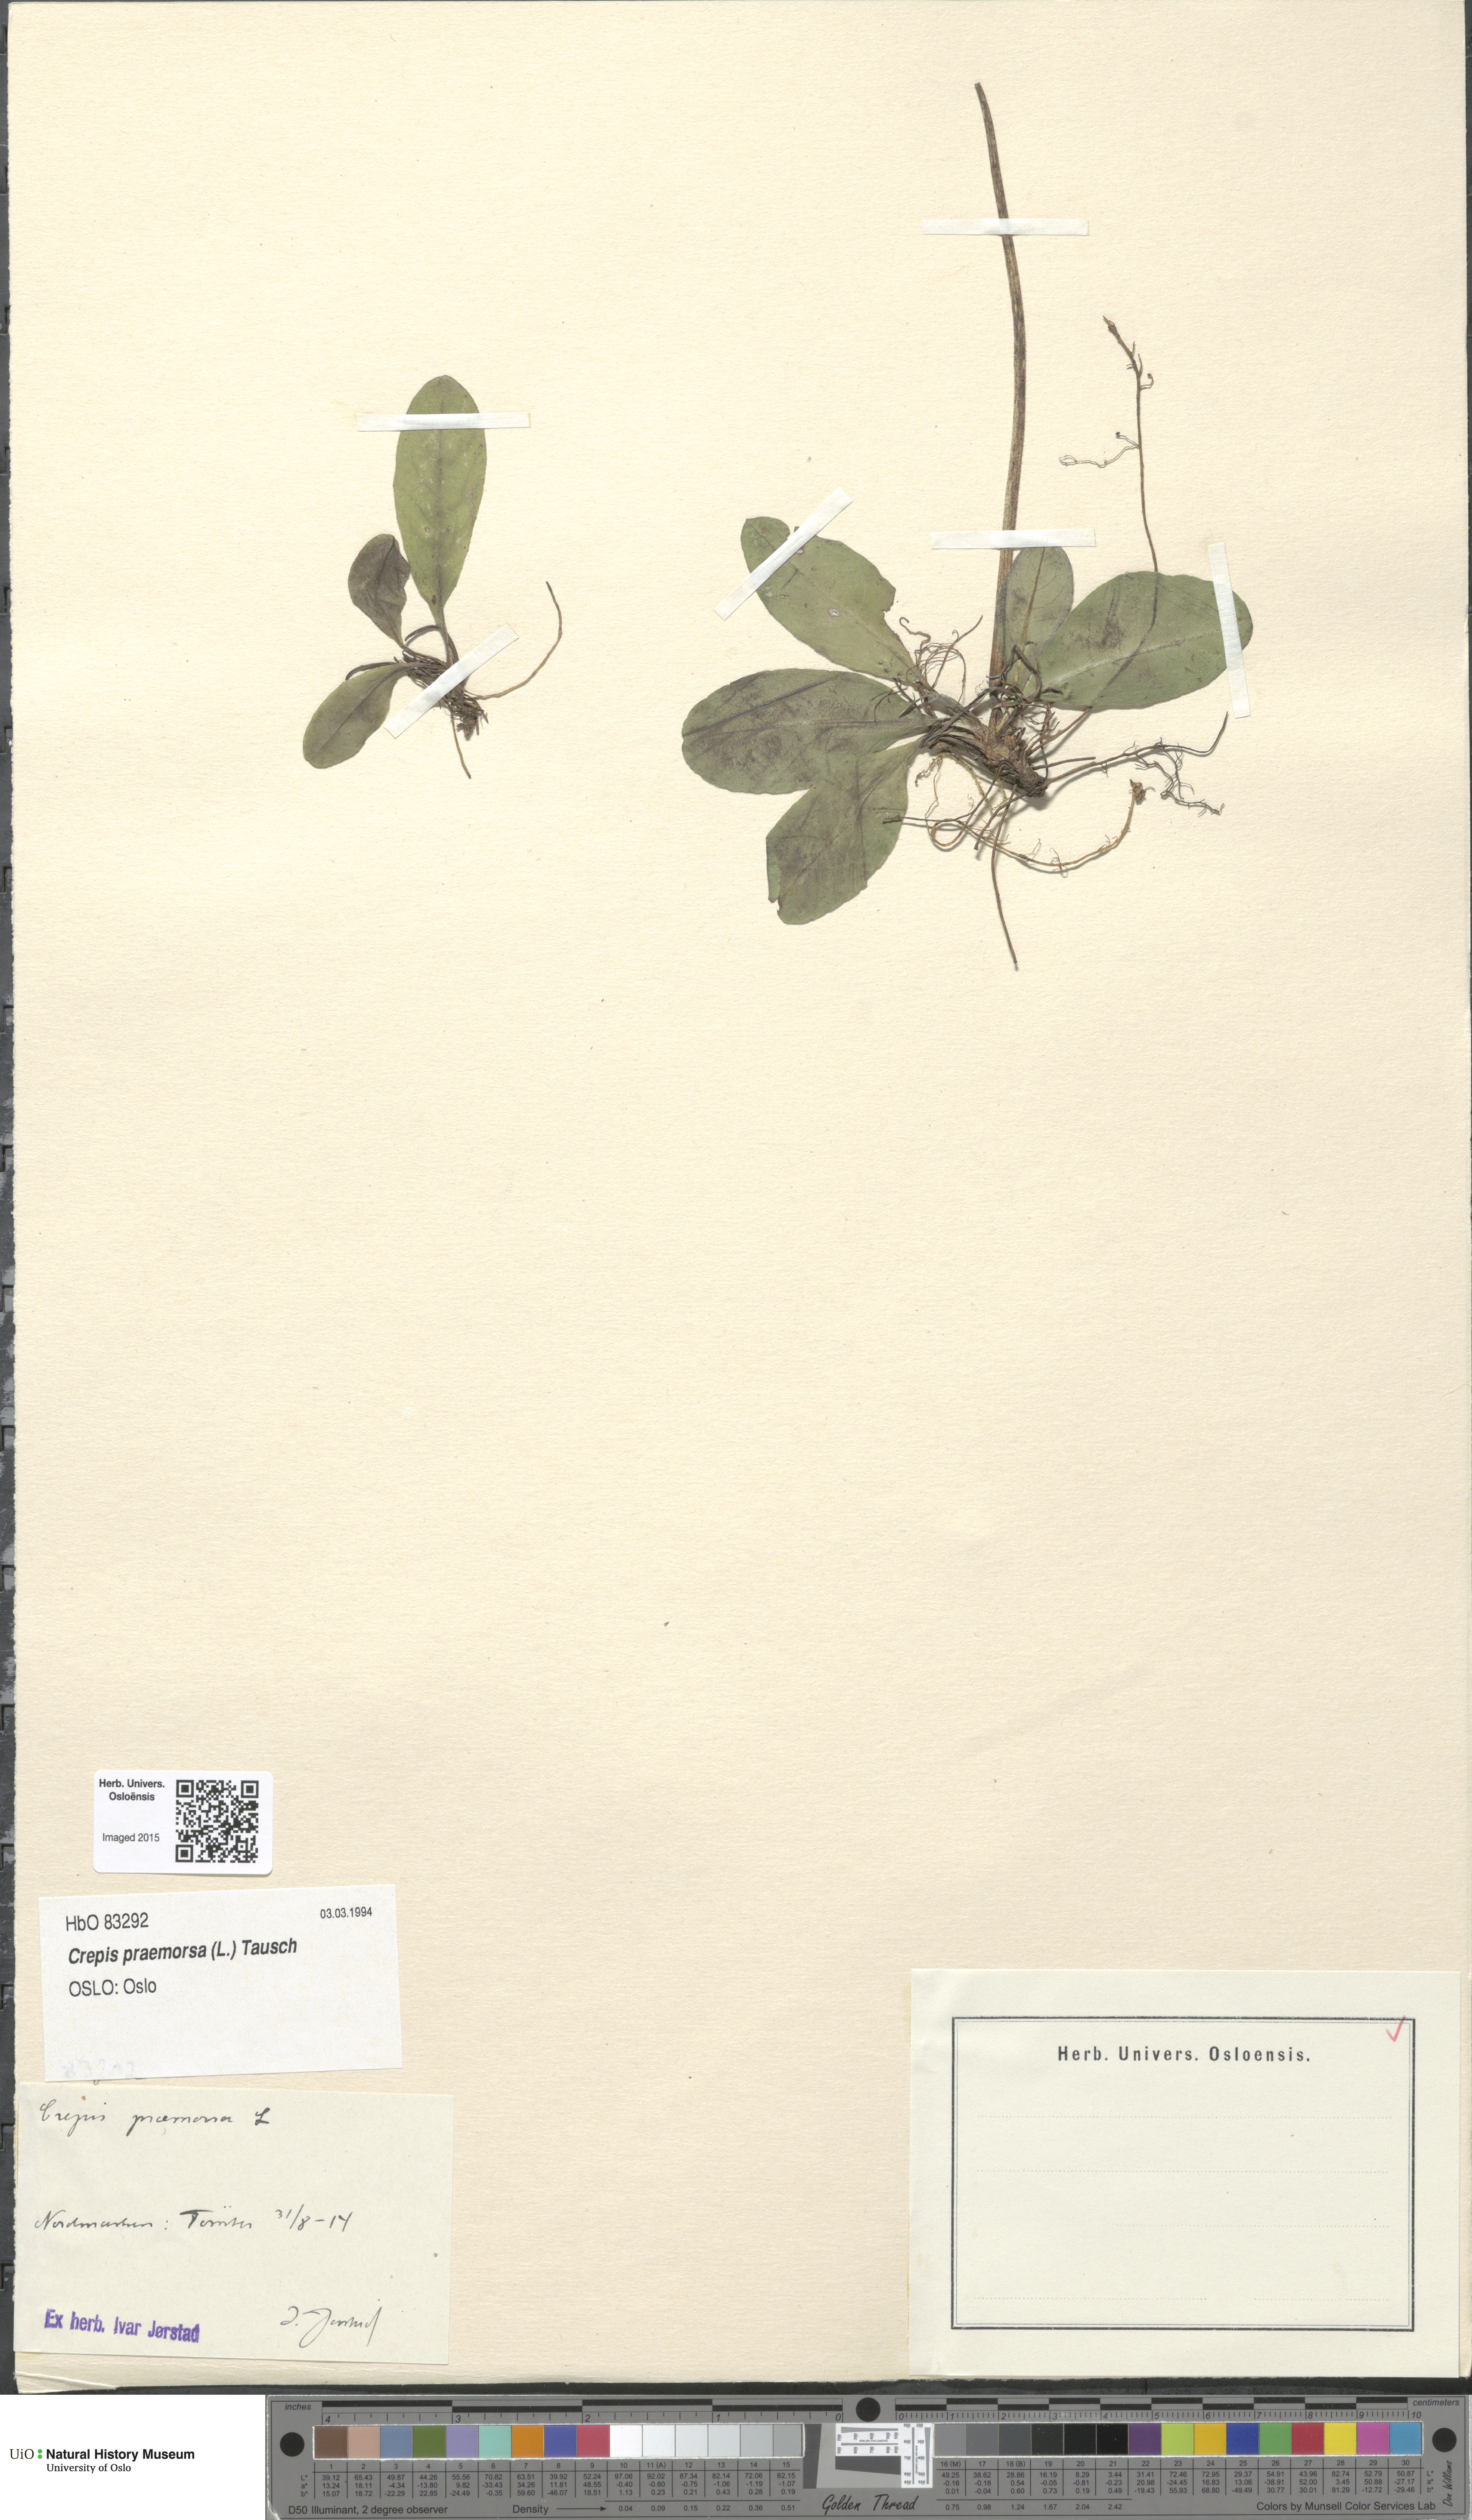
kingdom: Plantae
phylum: Tracheophyta
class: Magnoliopsida
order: Asterales
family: Asteraceae
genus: Crepis
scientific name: Crepis praemorsa
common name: Leafless hawk's-beard
